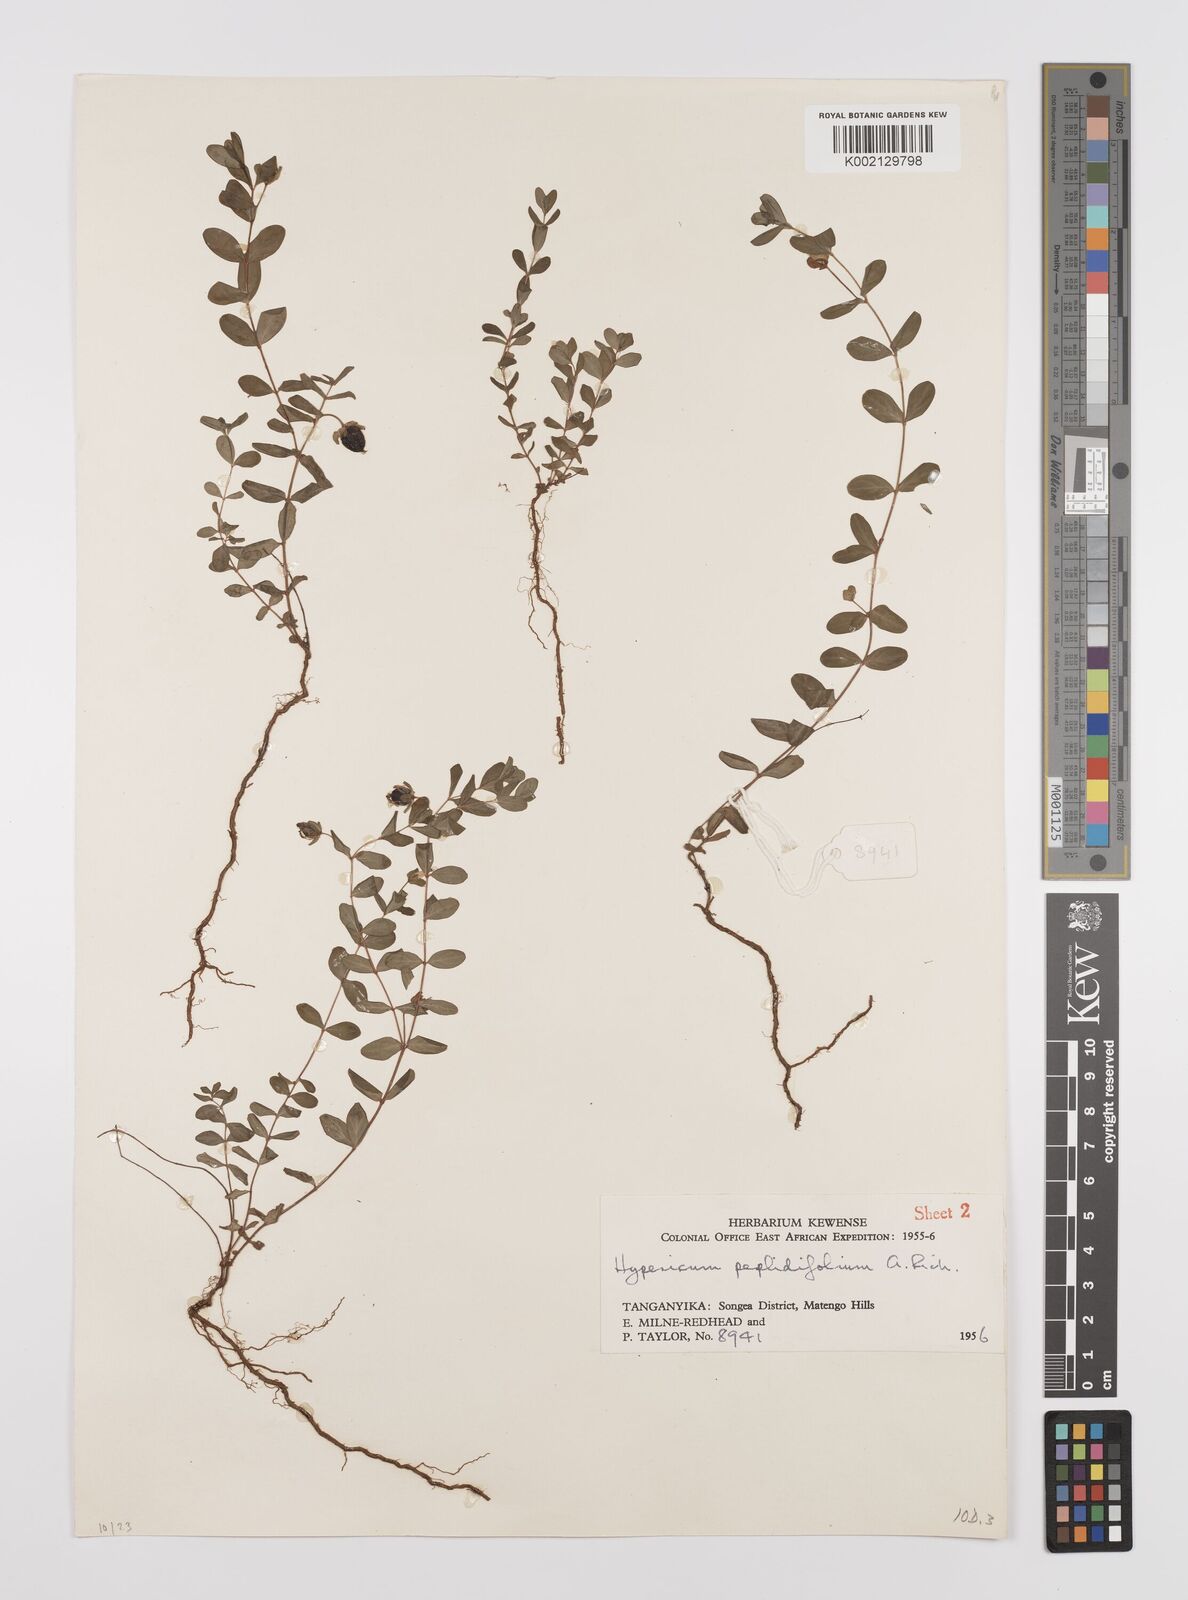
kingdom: Plantae
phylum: Tracheophyta
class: Magnoliopsida
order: Malpighiales
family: Hypericaceae
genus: Hypericum
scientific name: Hypericum peplidifolium
